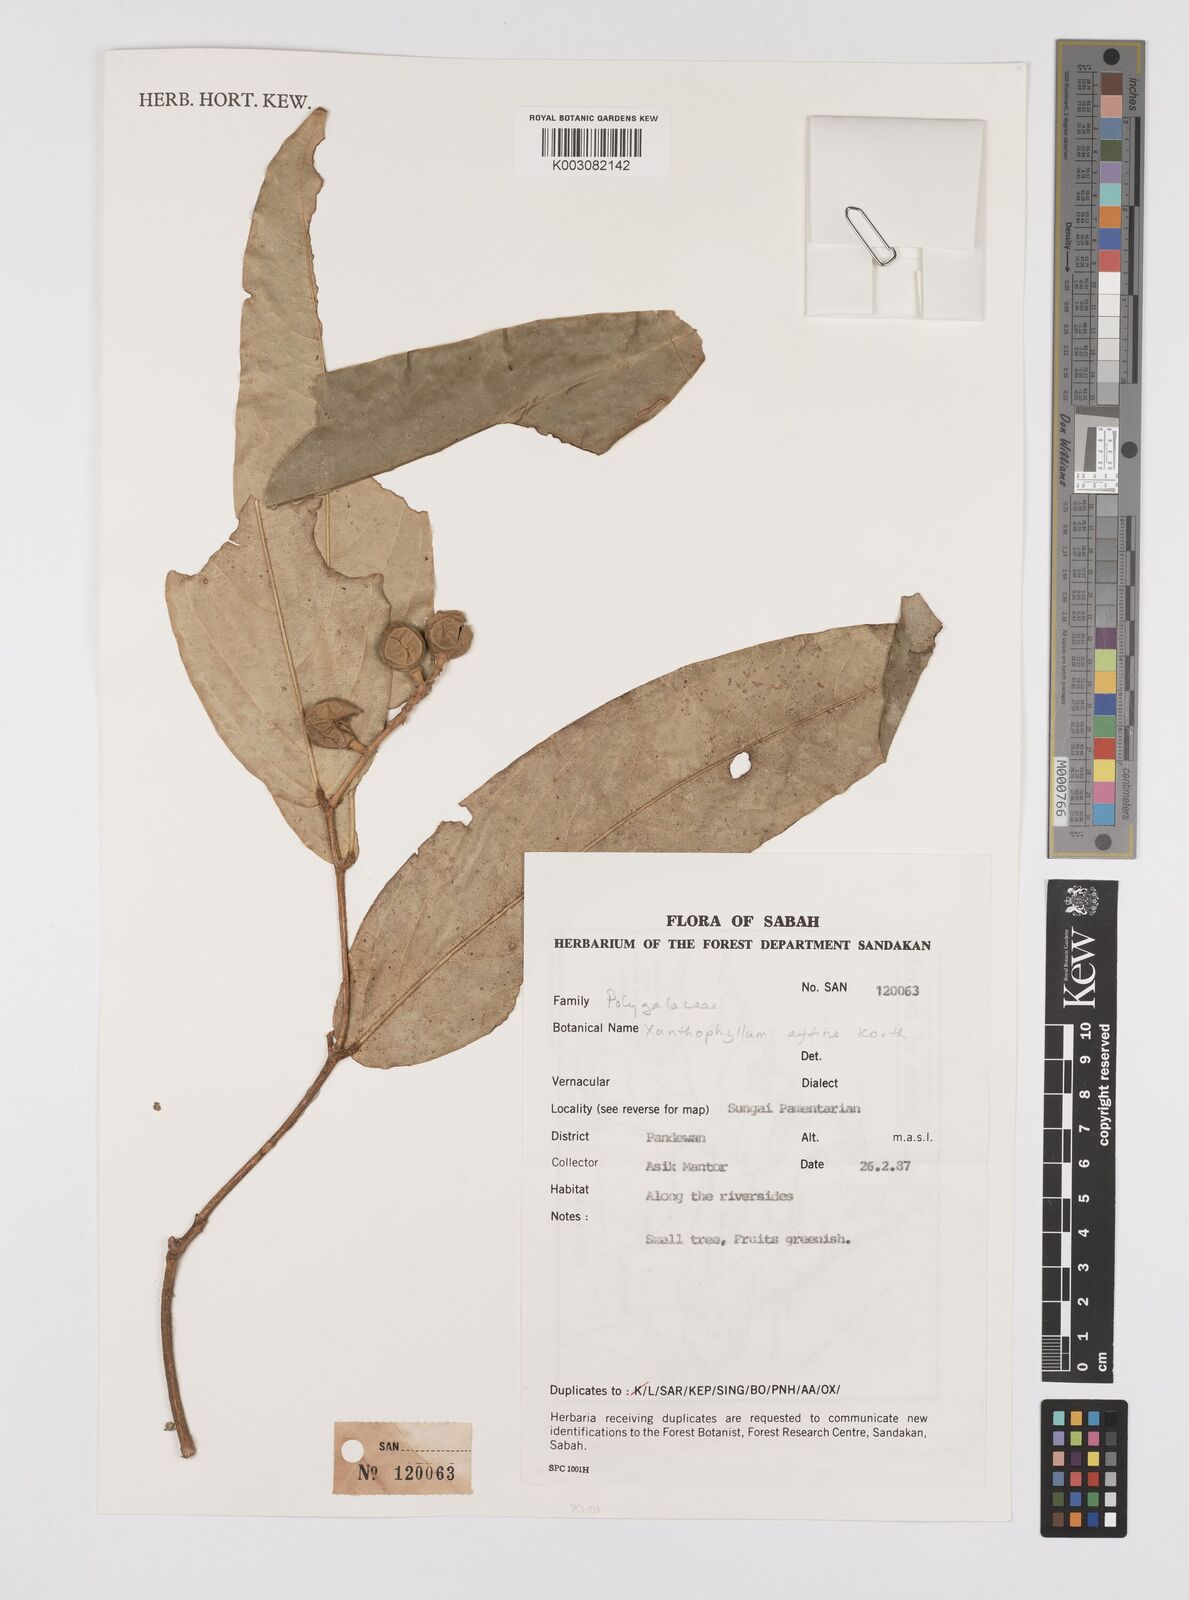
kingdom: Plantae
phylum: Tracheophyta
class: Magnoliopsida
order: Fabales
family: Polygalaceae
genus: Xanthophyllum
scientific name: Xanthophyllum flavescens
